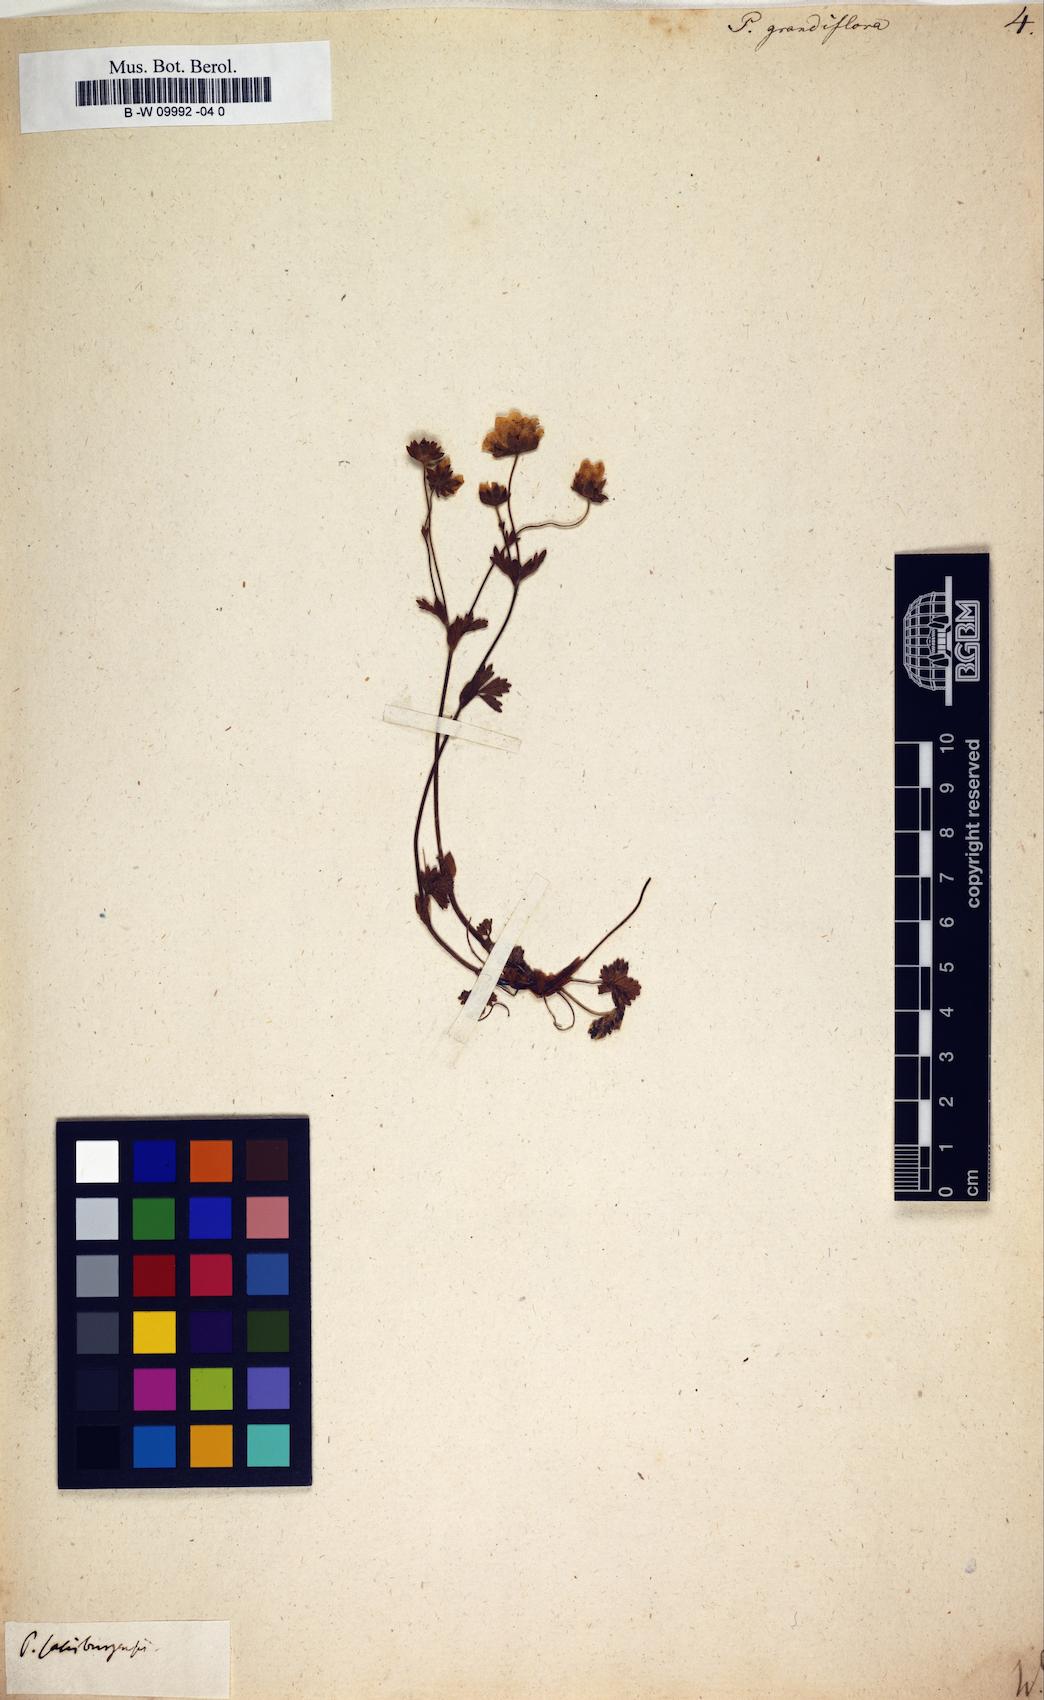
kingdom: Plantae
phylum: Tracheophyta
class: Magnoliopsida
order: Rosales
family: Rosaceae
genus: Potentilla
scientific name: Potentilla grandiflora
